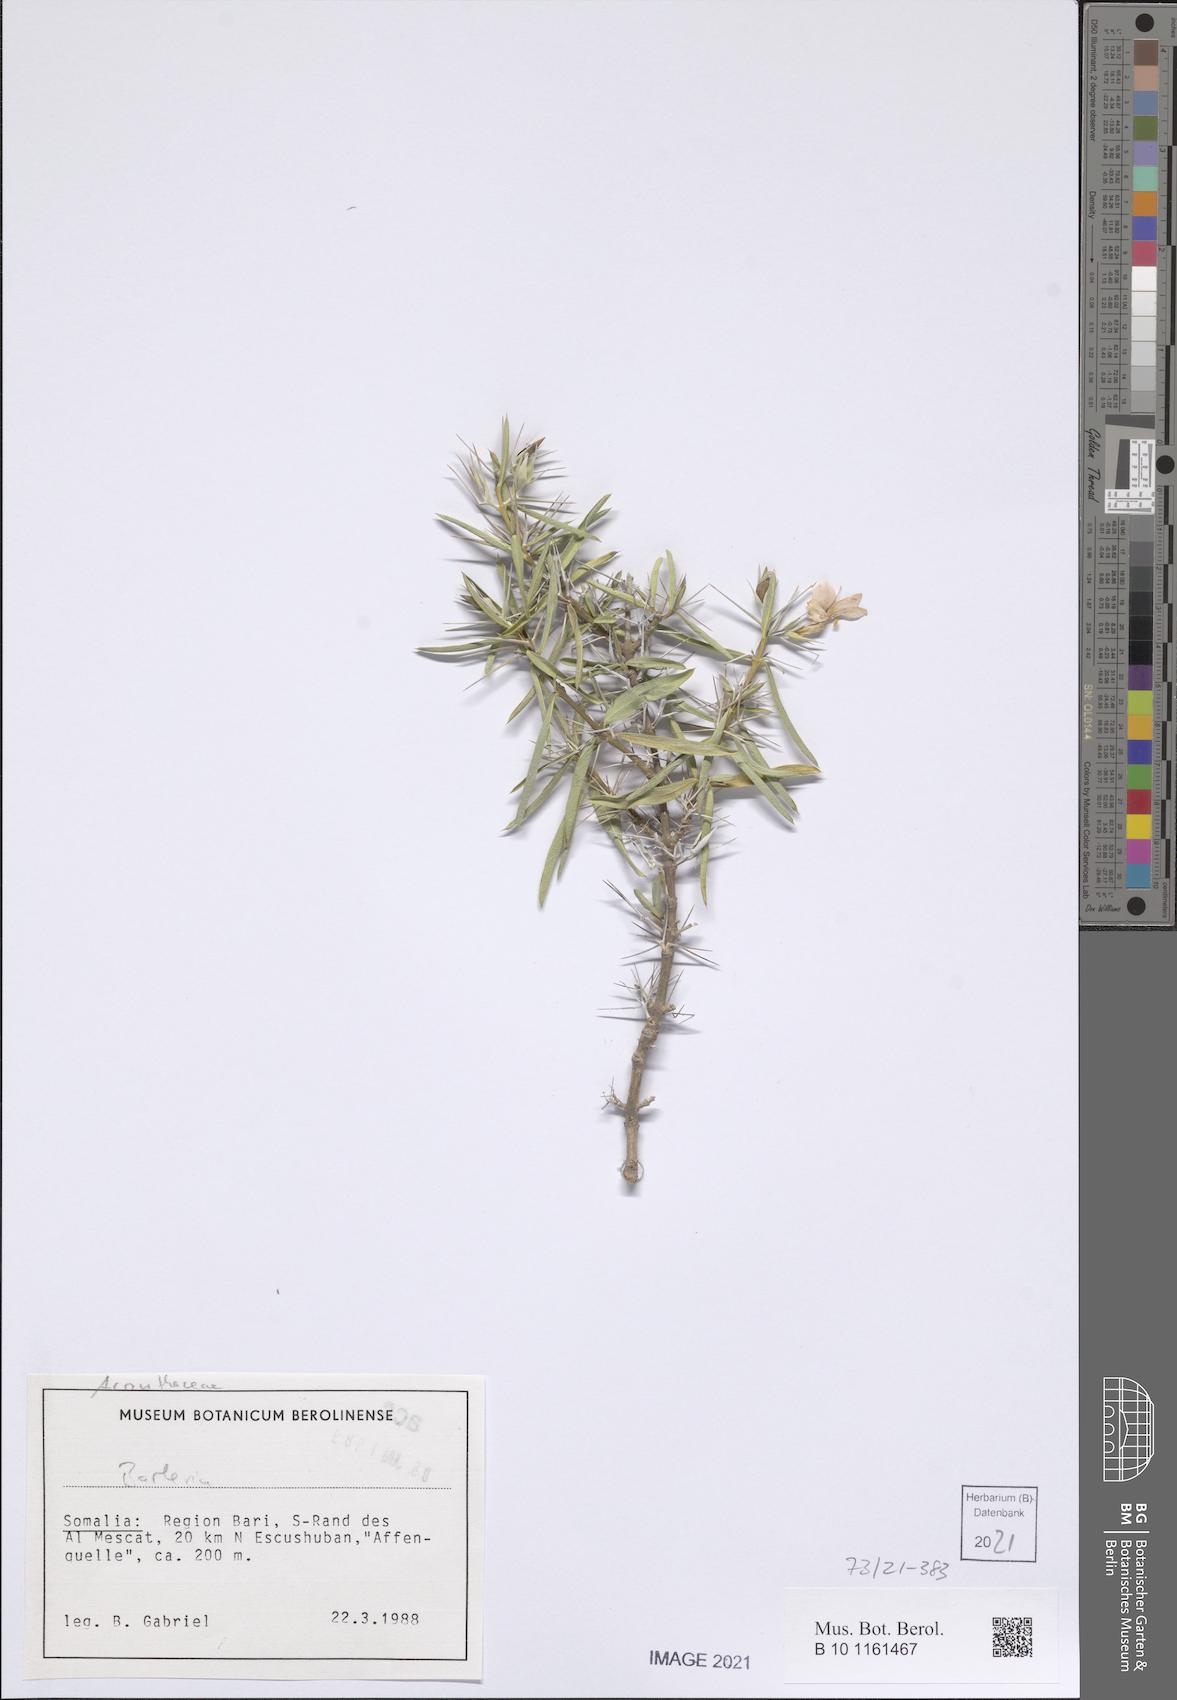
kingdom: Plantae
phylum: Tracheophyta
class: Magnoliopsida
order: Lamiales
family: Acanthaceae
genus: Barleria
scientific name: Barleria brevispina
